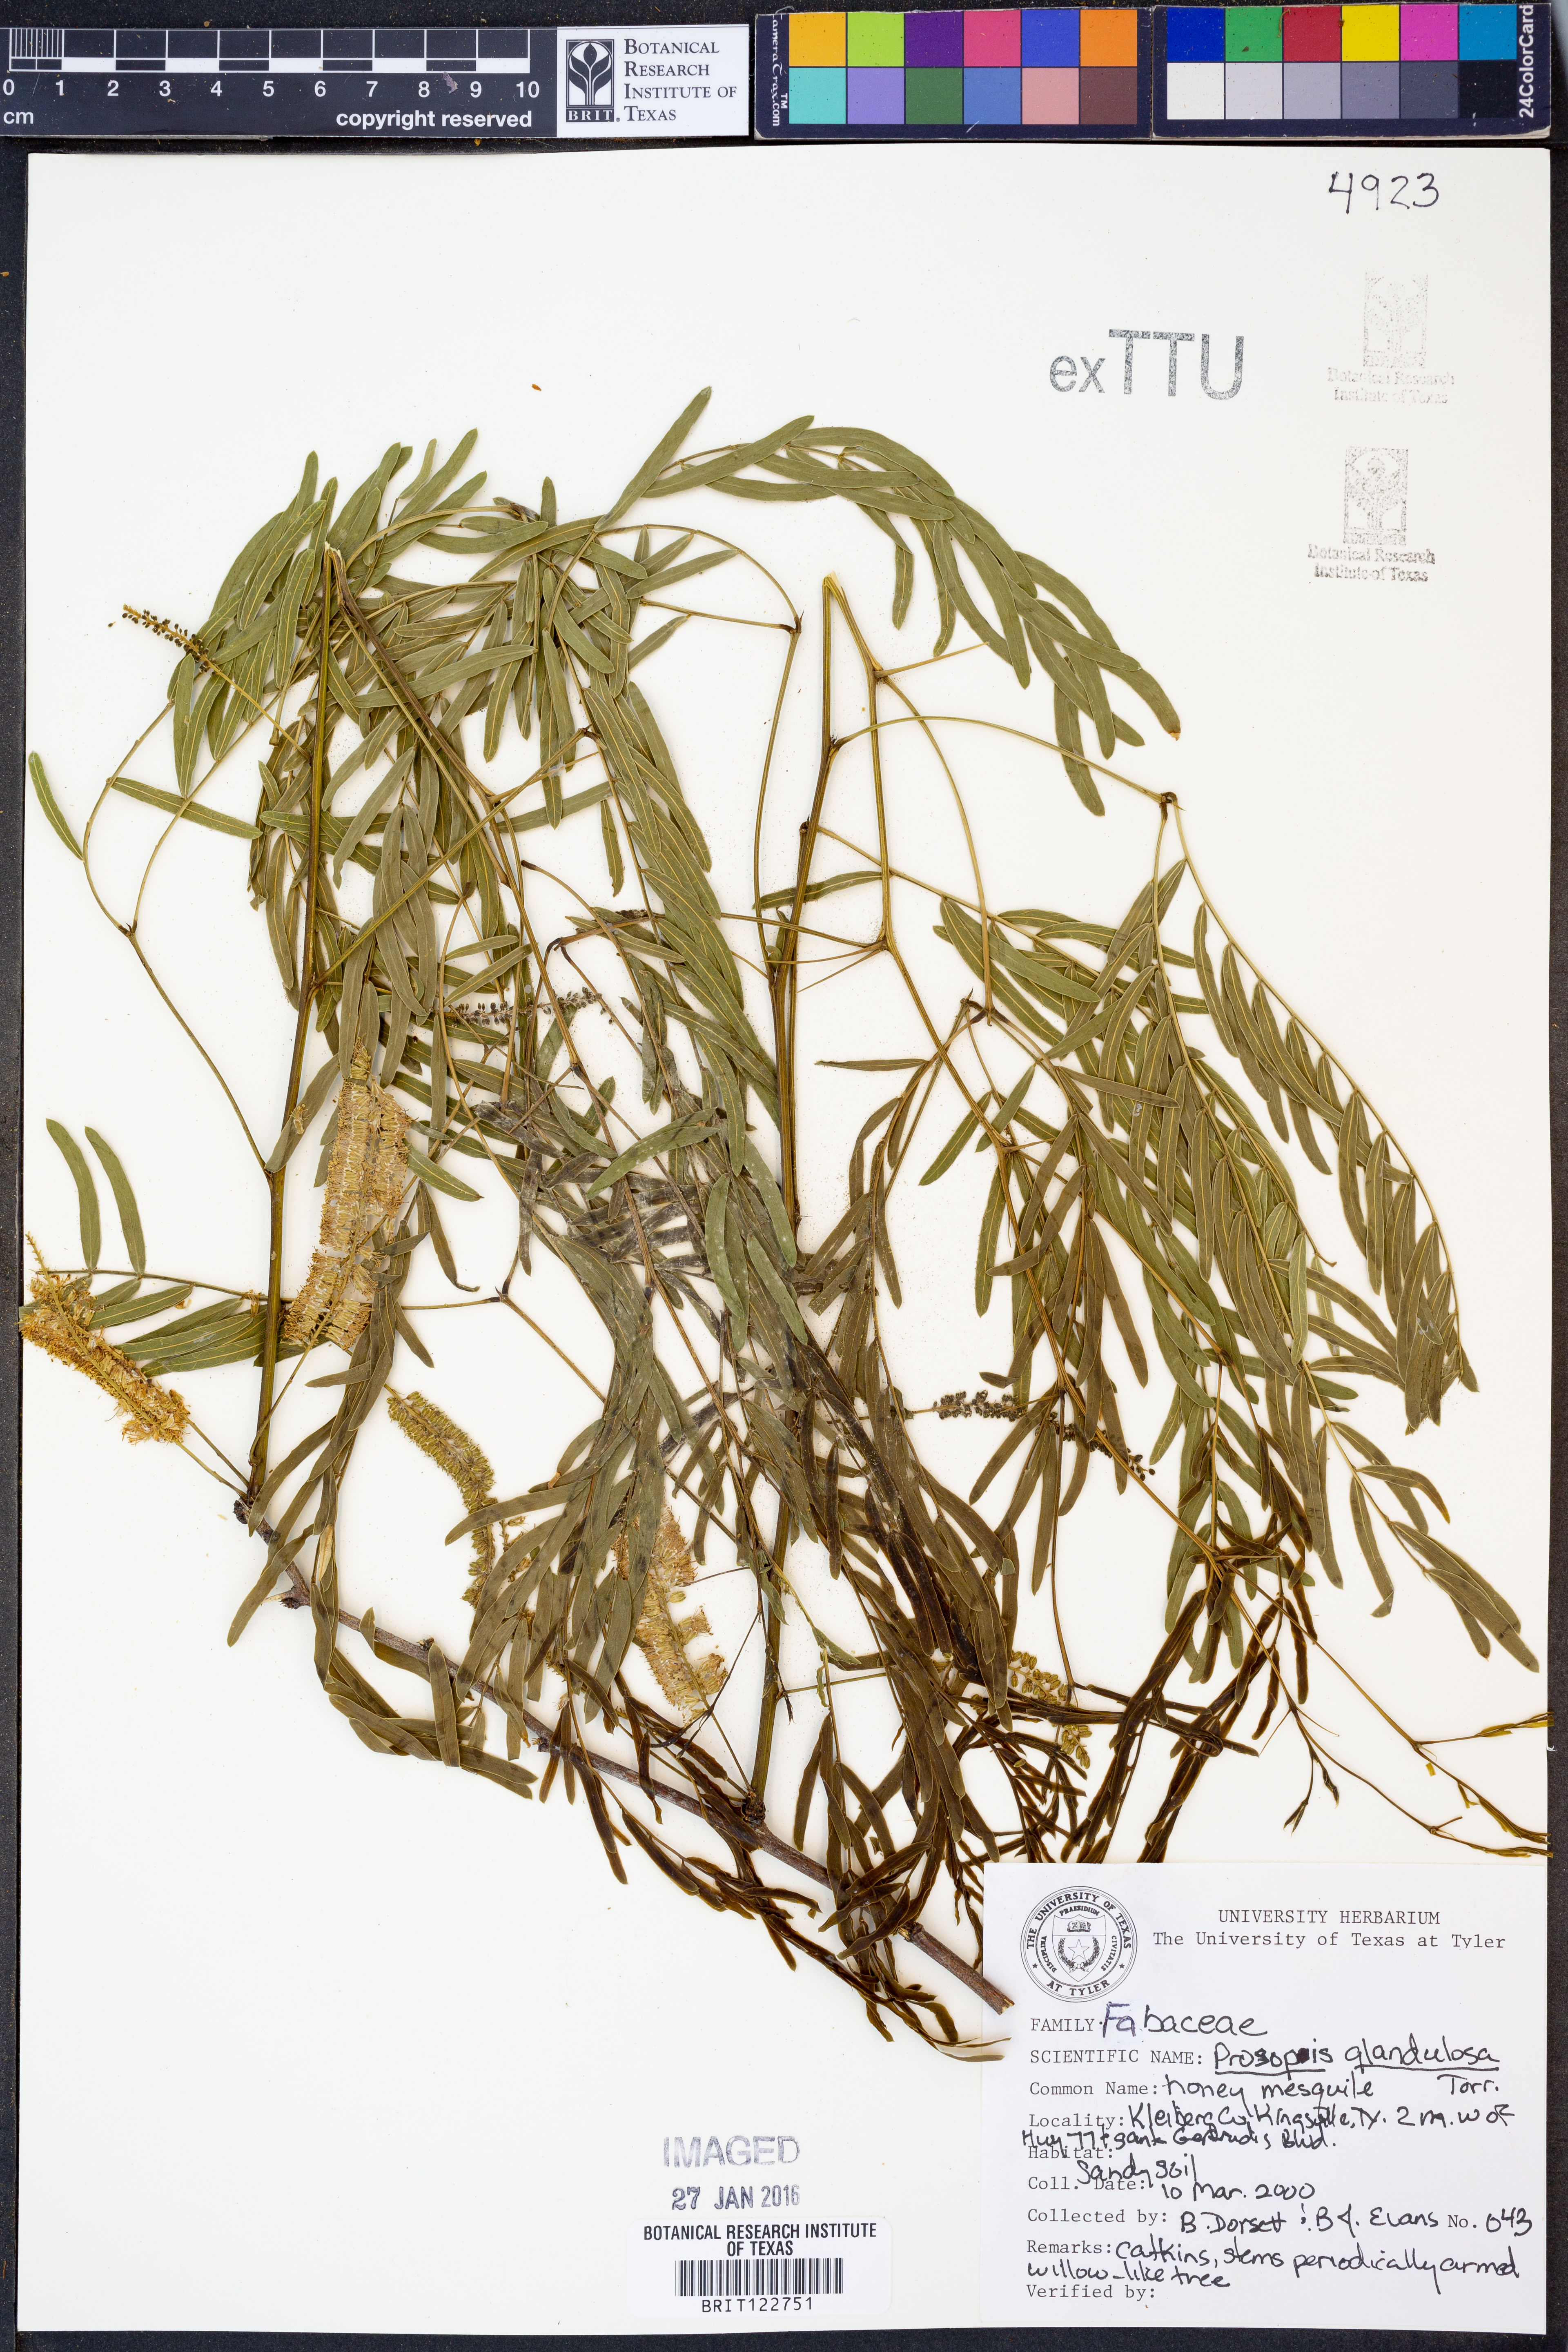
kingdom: Plantae
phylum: Tracheophyta
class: Magnoliopsida
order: Fabales
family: Fabaceae
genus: Prosopis
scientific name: Prosopis glandulosa
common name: Honey mesquite
